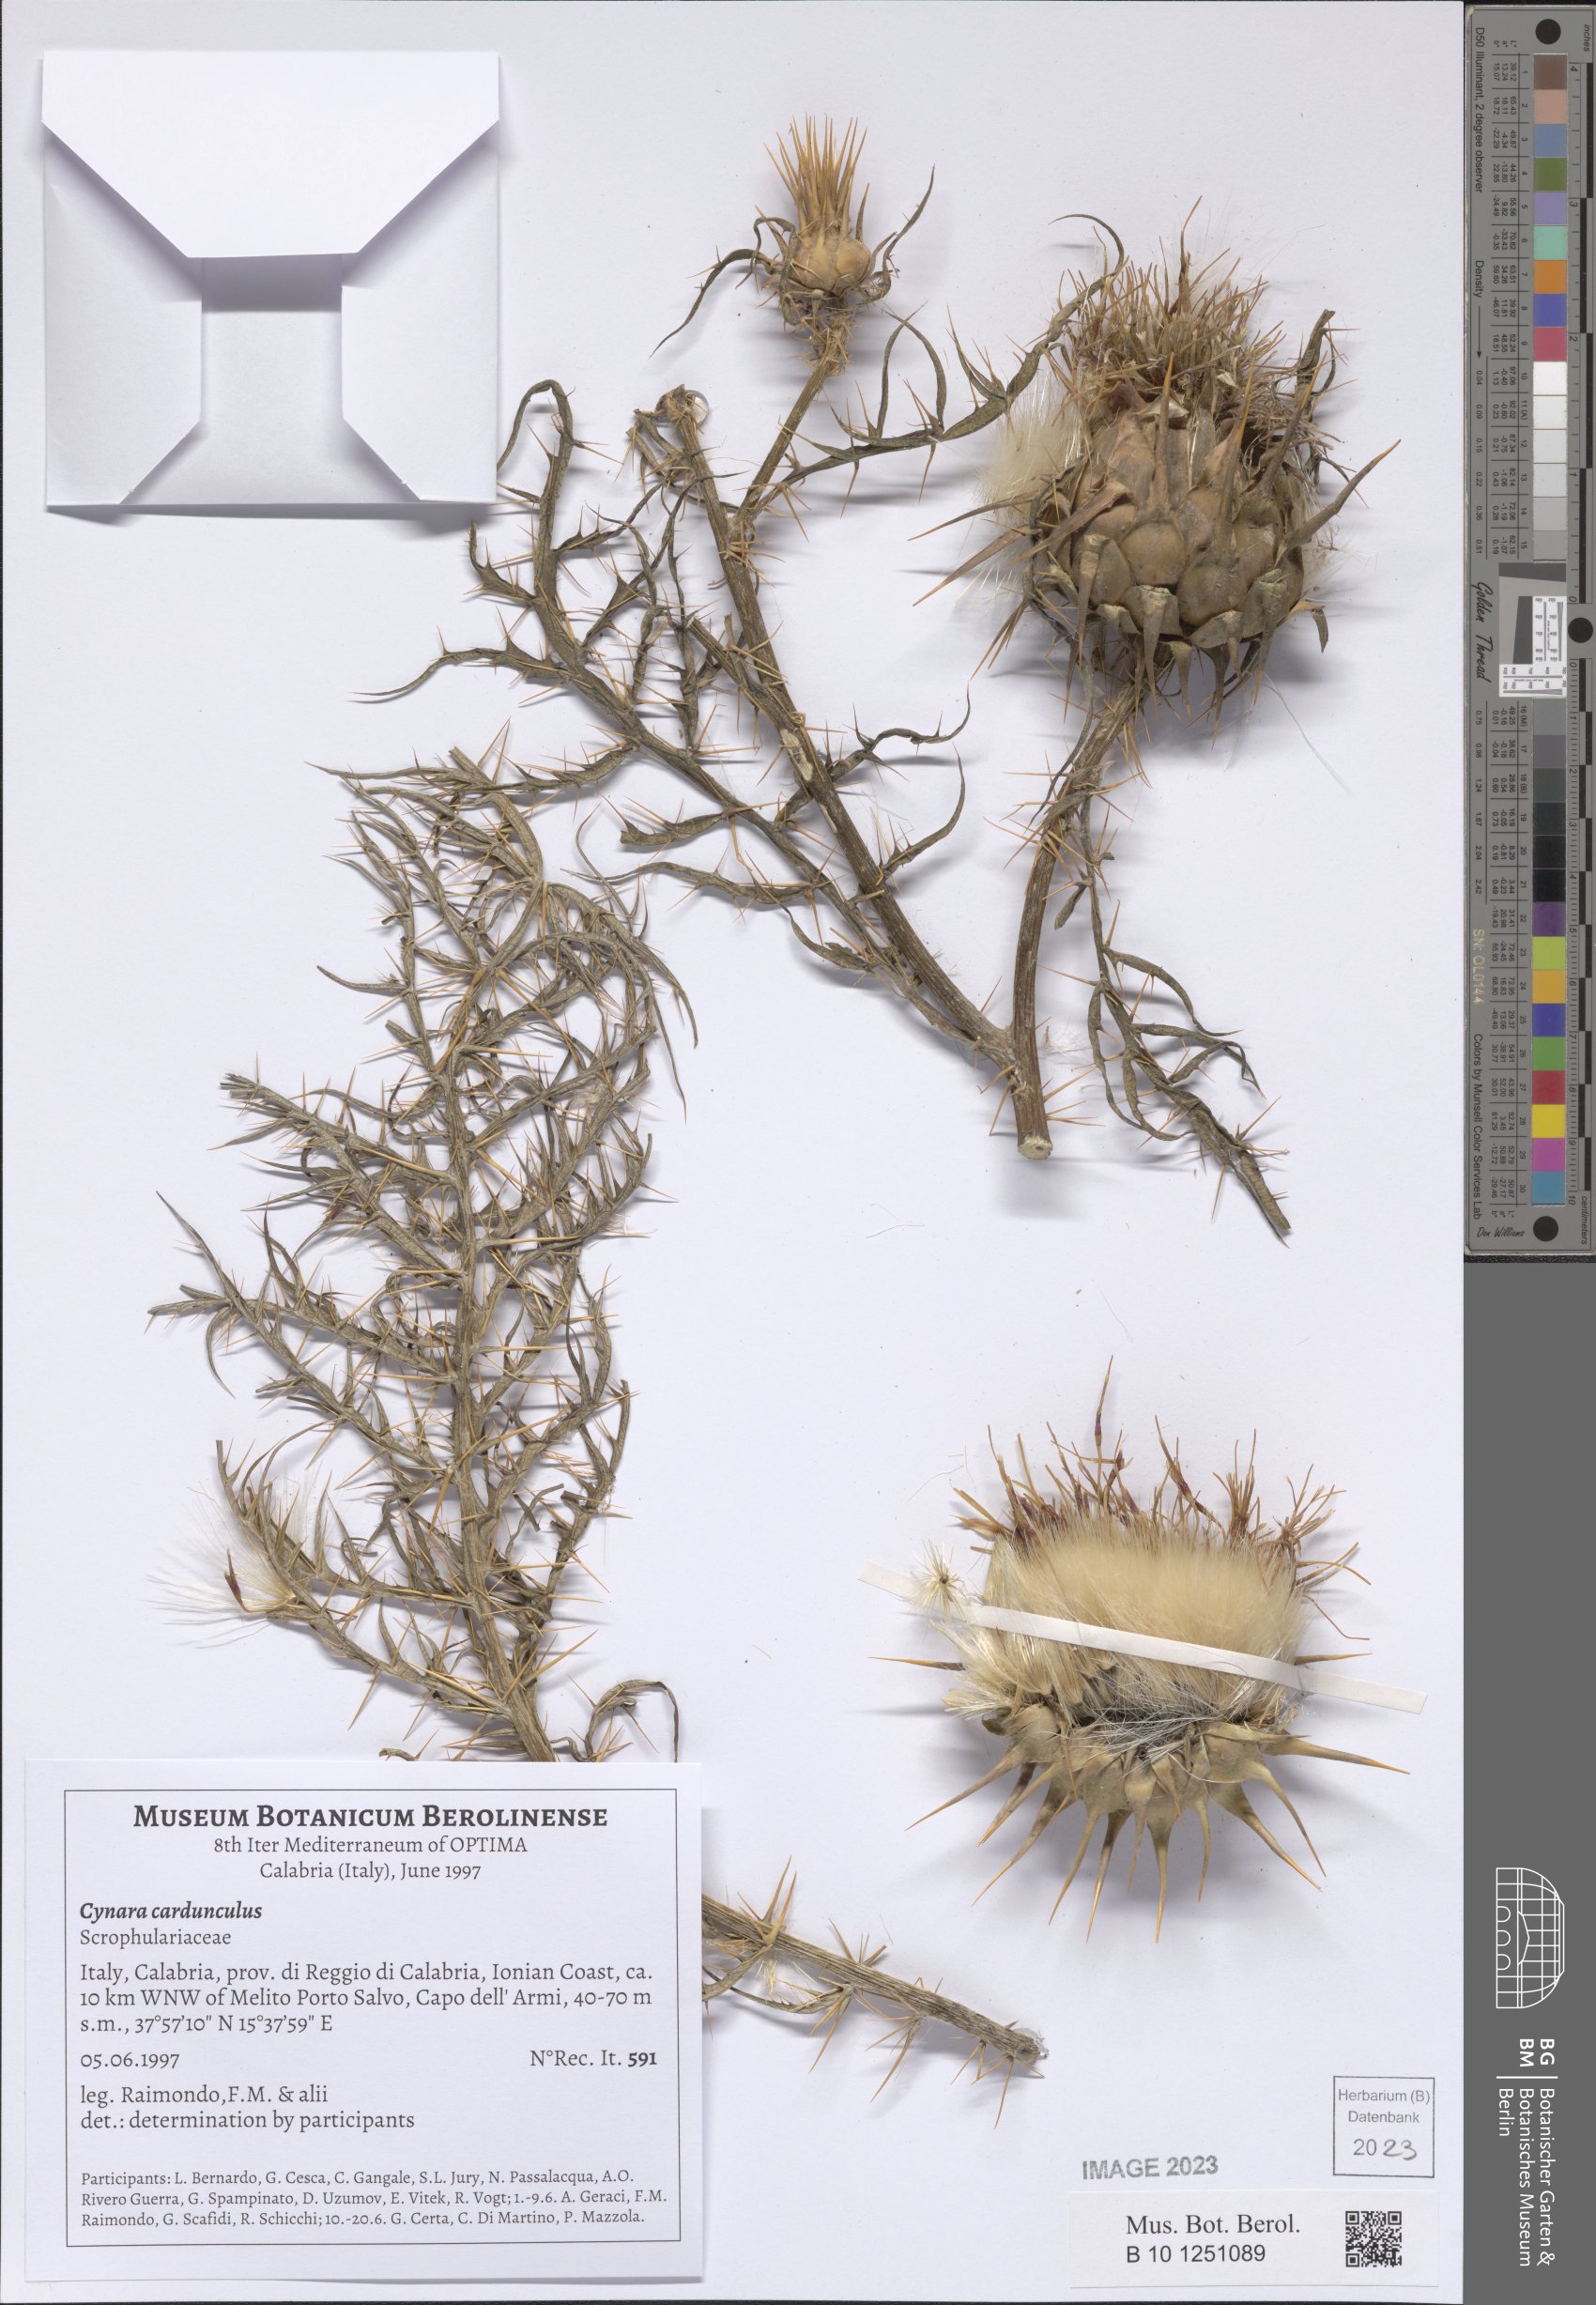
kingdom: Plantae
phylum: Tracheophyta
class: Magnoliopsida
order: Asterales
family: Asteraceae
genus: Cynara
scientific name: Cynara cardunculus
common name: Globe artichoke
